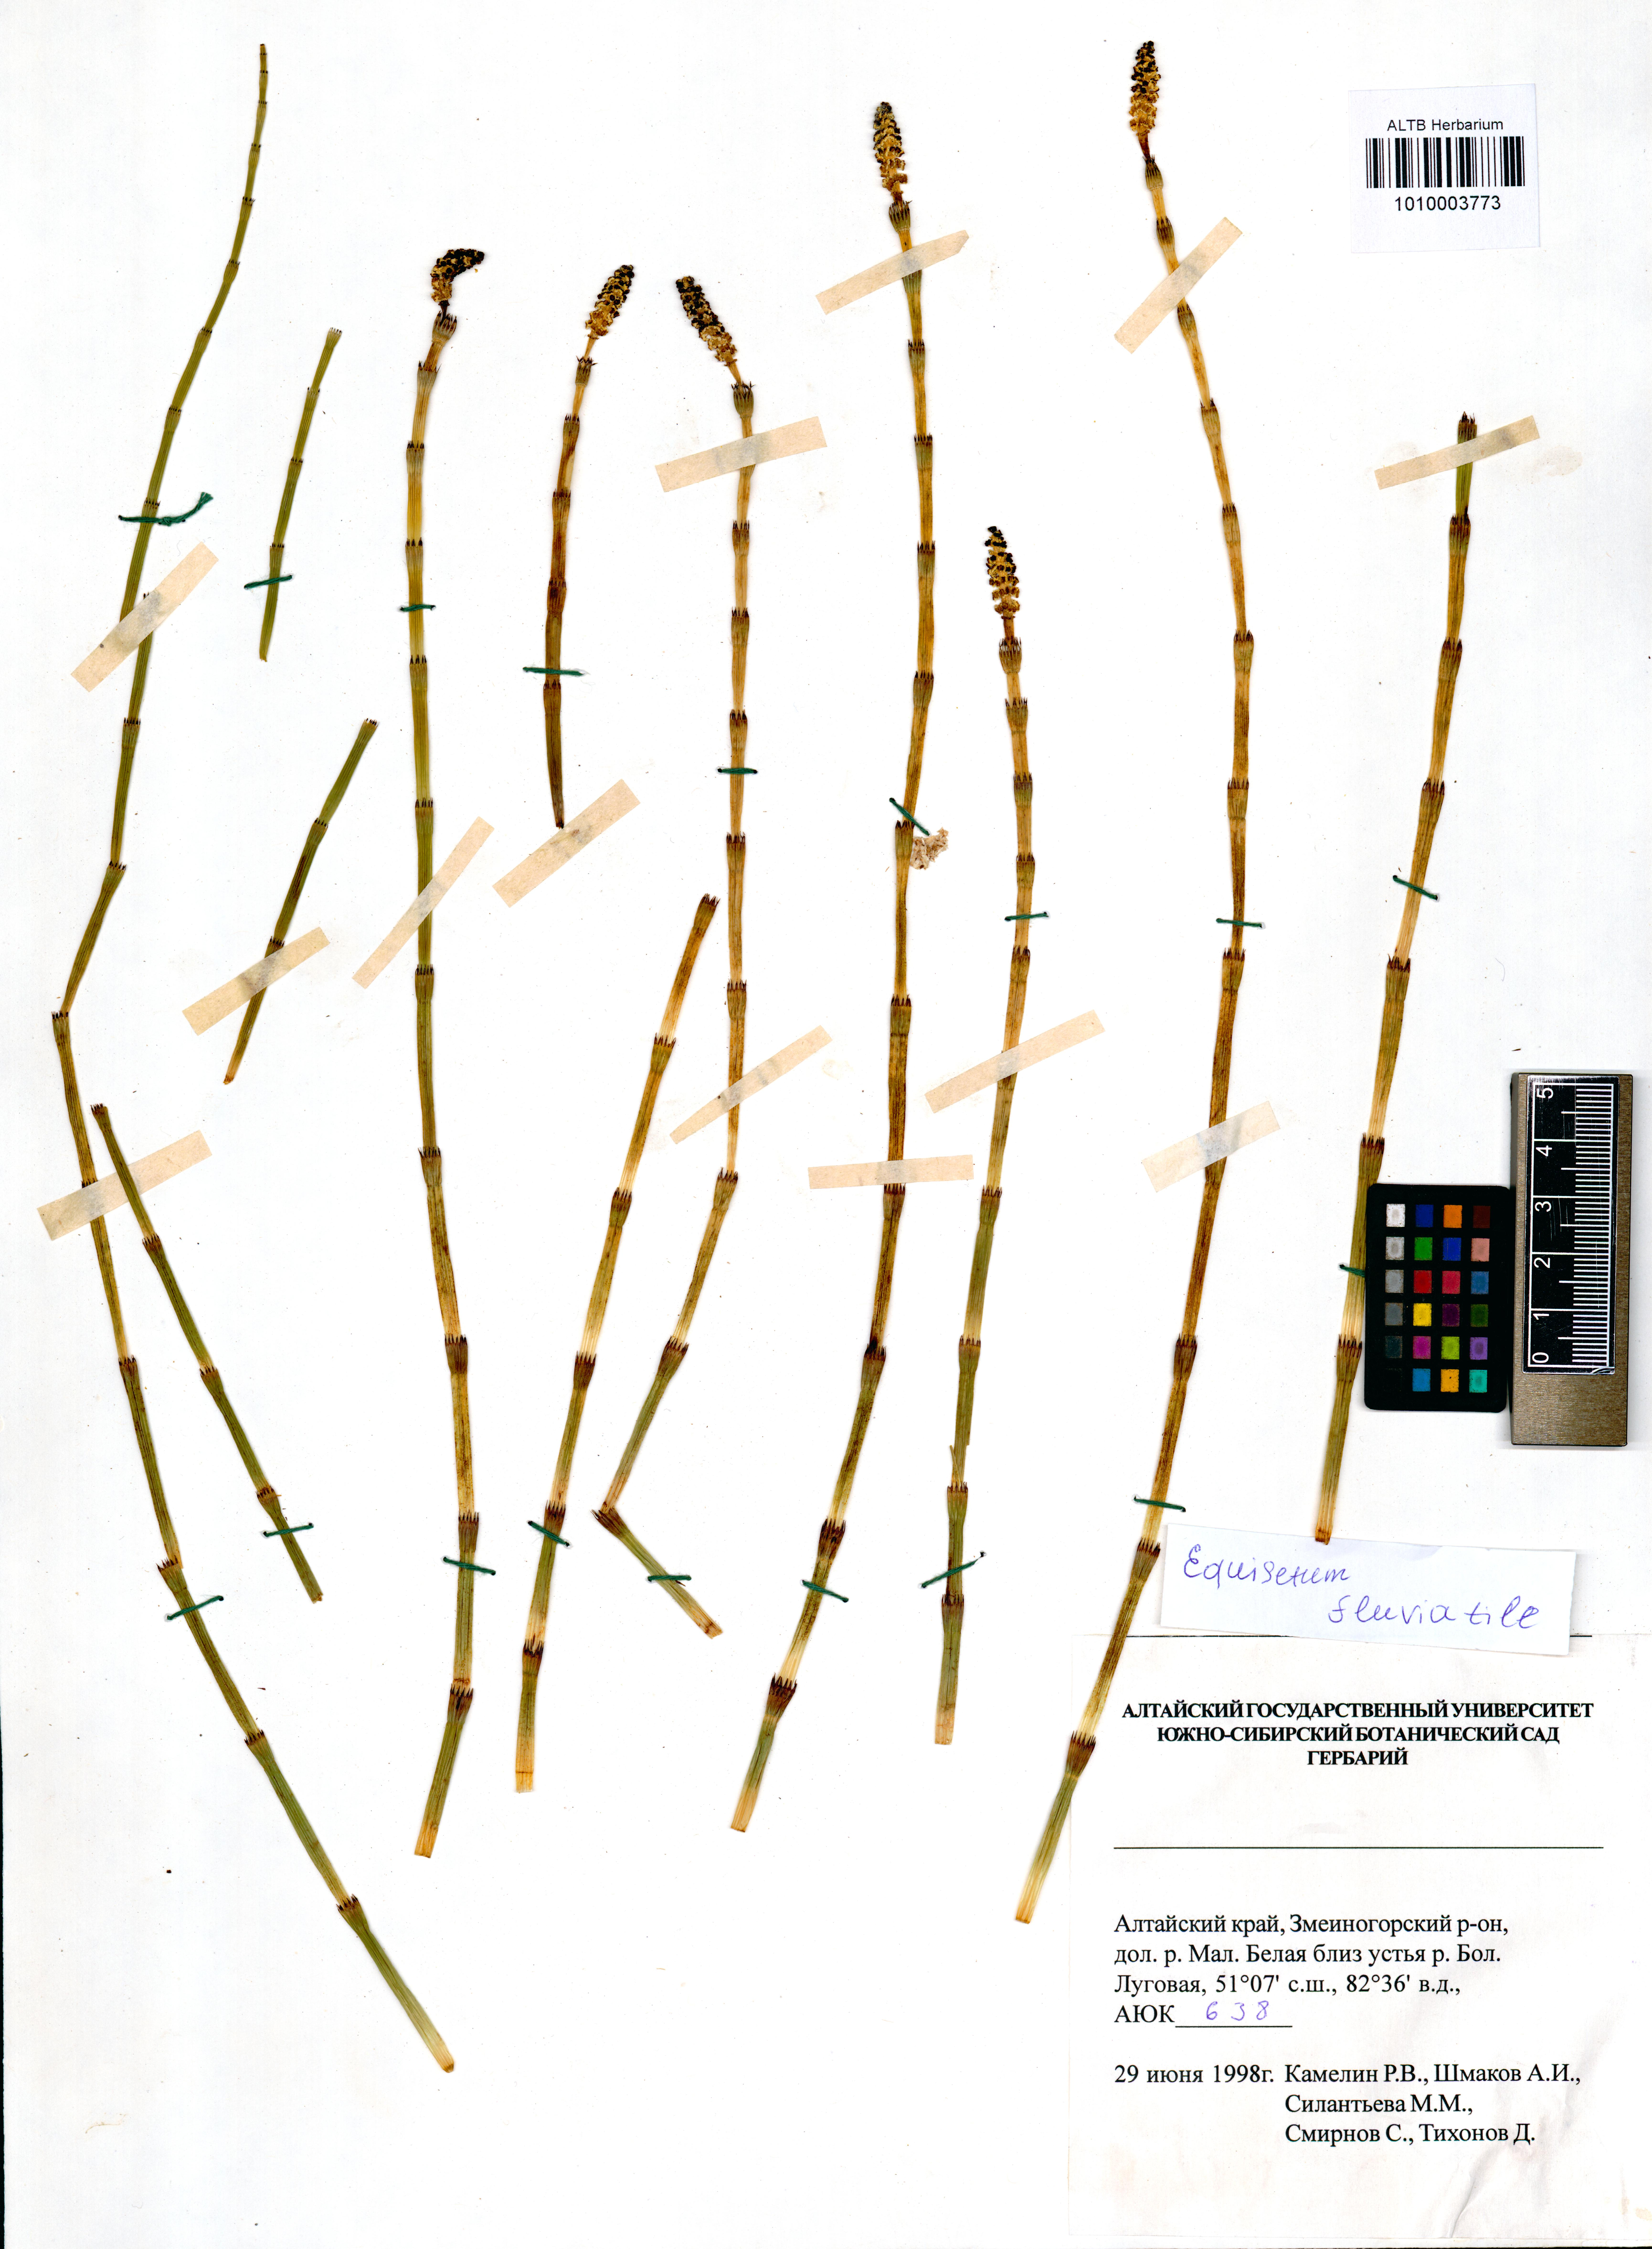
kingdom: Plantae
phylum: Tracheophyta
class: Polypodiopsida
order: Equisetales
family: Equisetaceae
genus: Equisetum
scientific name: Equisetum fluviatile
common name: Water horsetail
